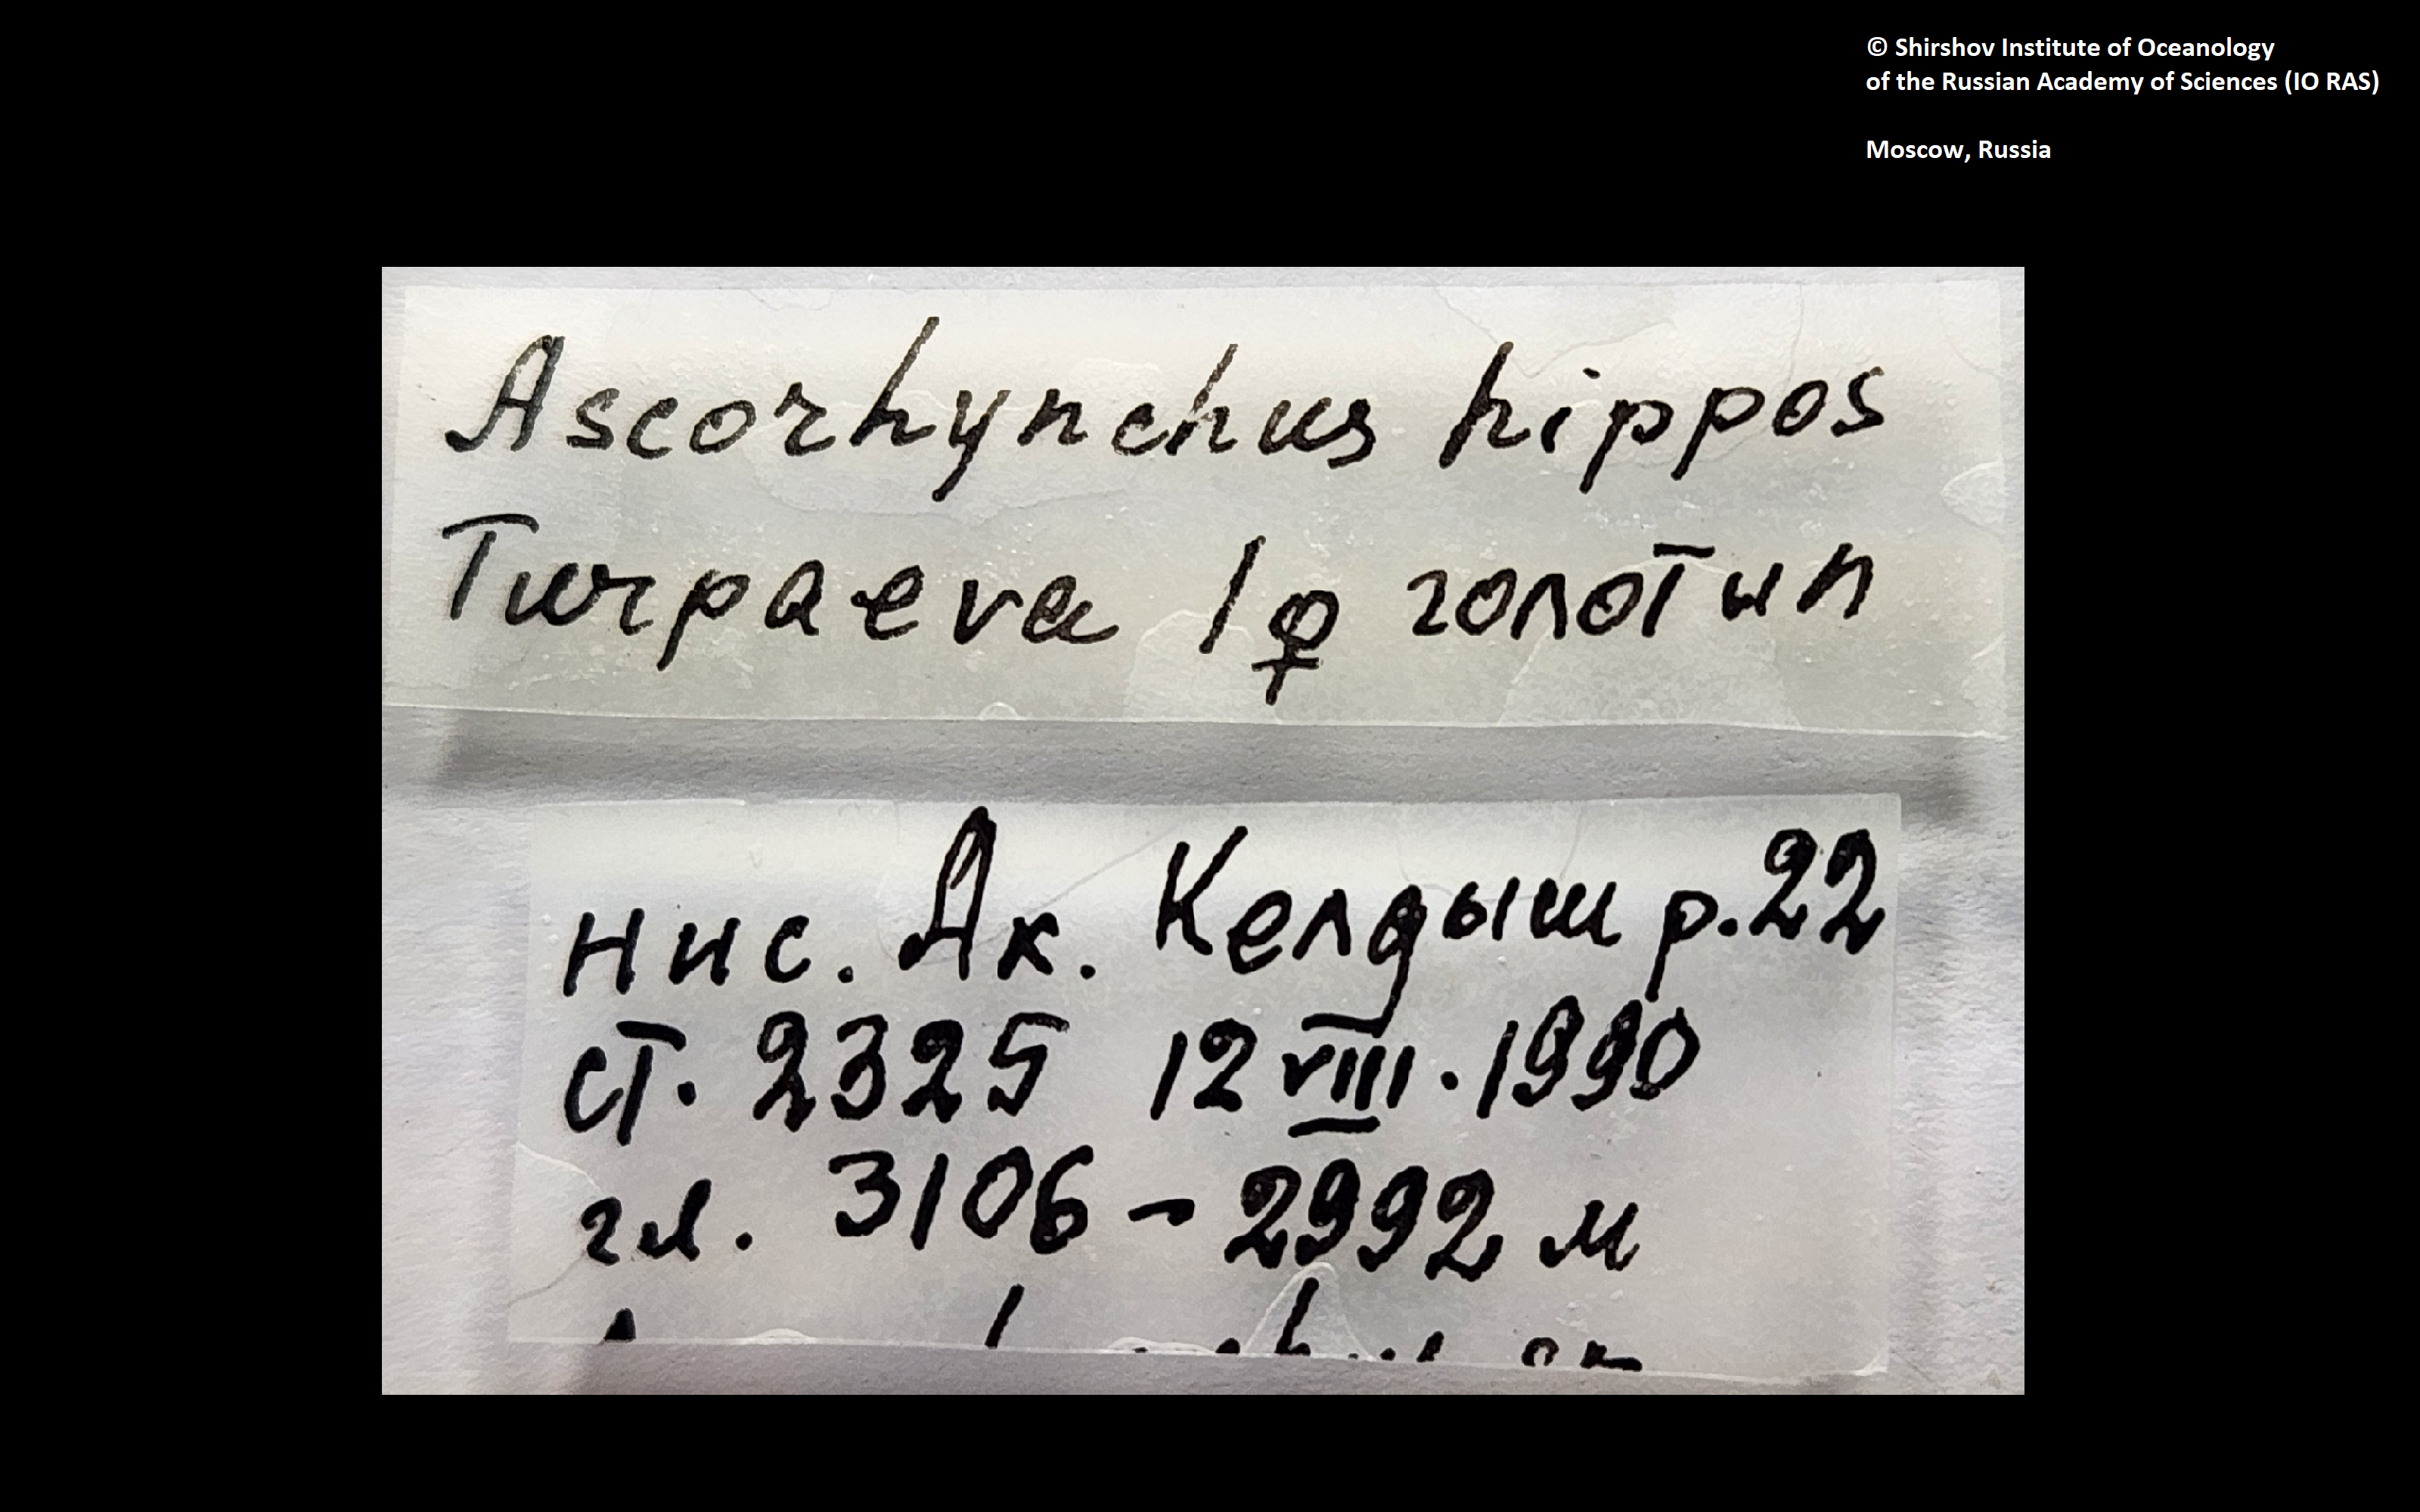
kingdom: Animalia
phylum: Arthropoda
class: Pycnogonida
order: Pantopoda
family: Ascorhynchidae
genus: Ascorhynchus
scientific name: Ascorhynchus hippos
